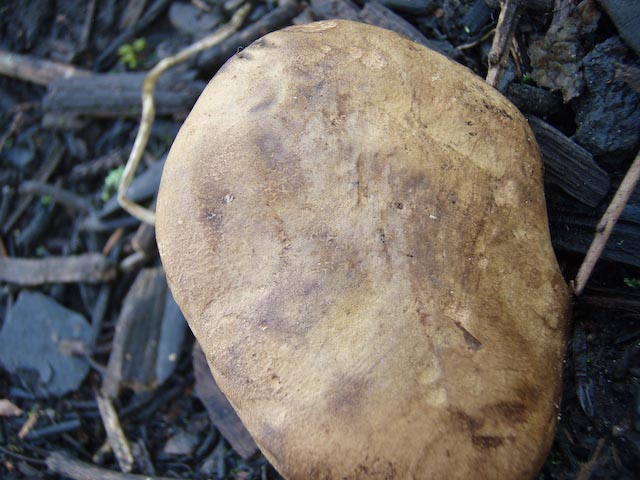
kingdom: Fungi
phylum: Basidiomycota
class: Agaricomycetes
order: Boletales
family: Boletaceae
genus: Cyanoboletus
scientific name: Cyanoboletus pulverulentus
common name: sortblånende rørhat
